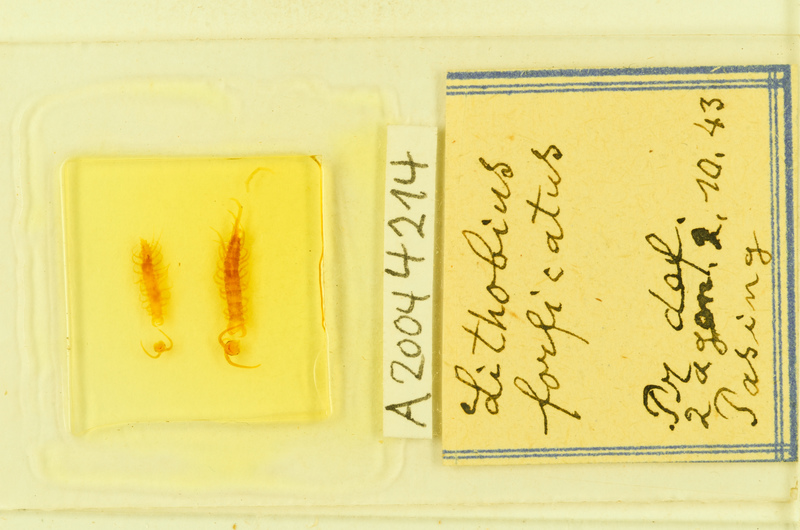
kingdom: Animalia
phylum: Arthropoda
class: Chilopoda
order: Lithobiomorpha
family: Lithobiidae
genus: Lithobius
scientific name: Lithobius forficatus
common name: Centipede
